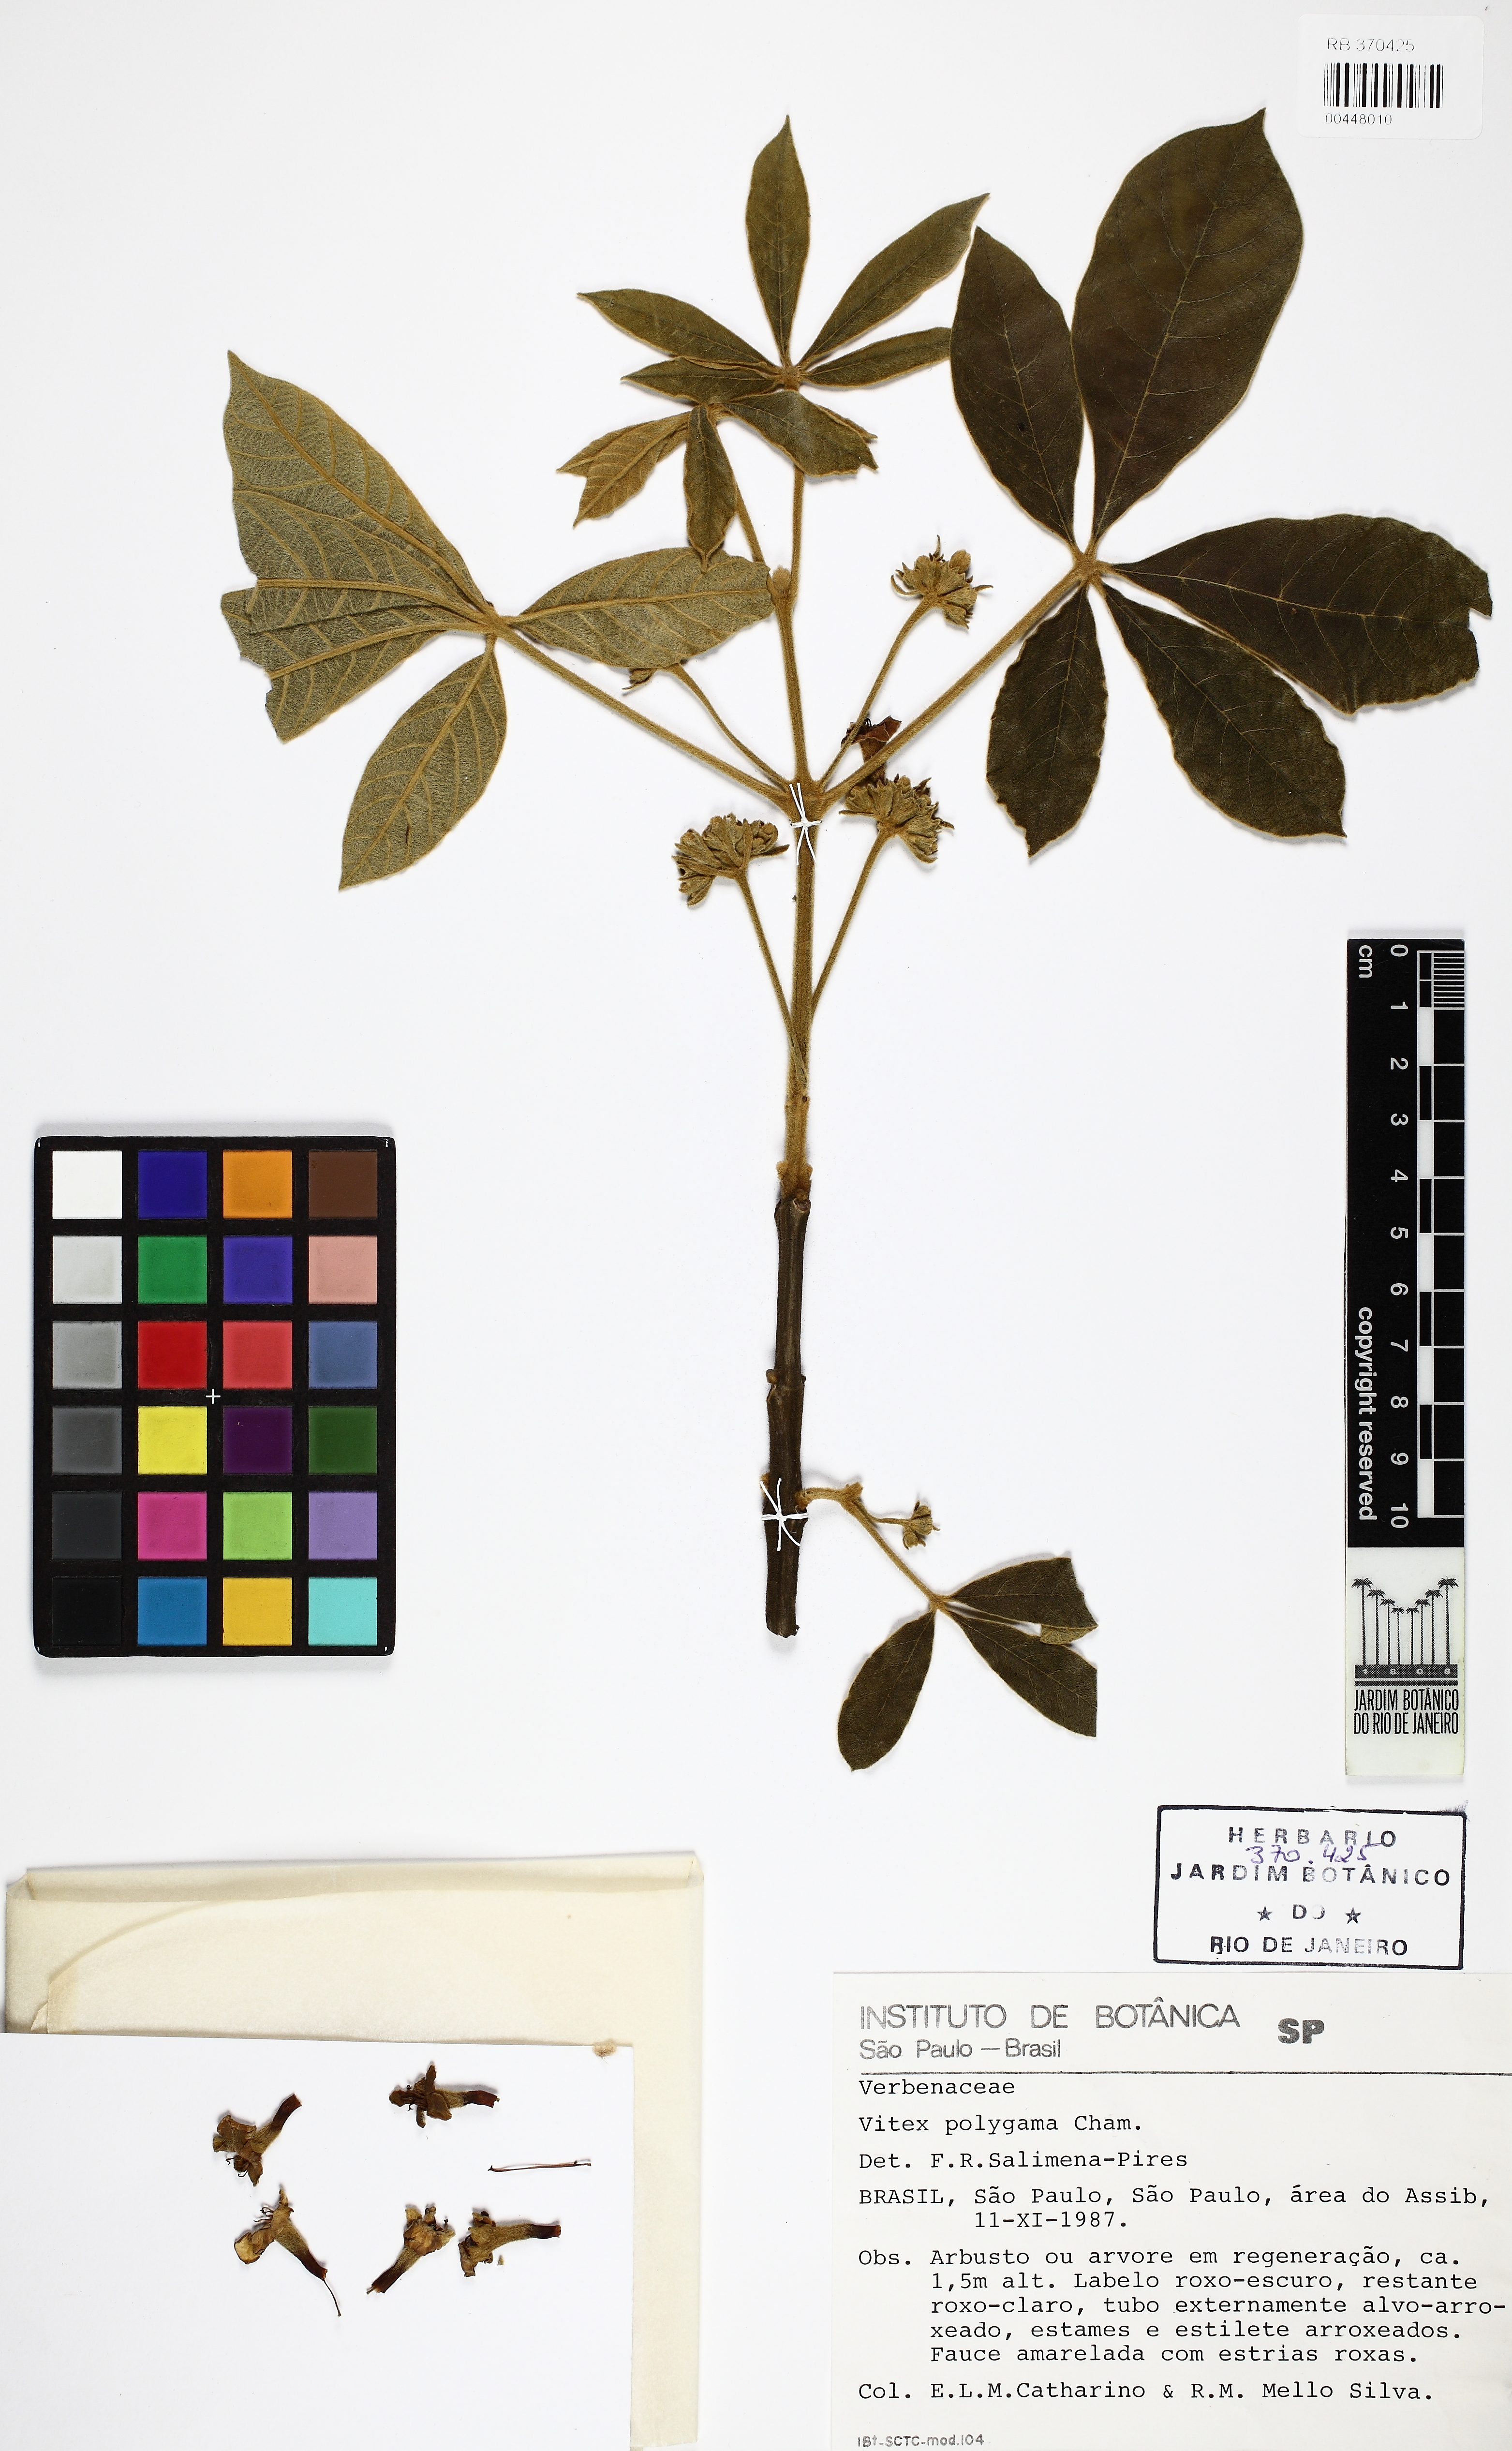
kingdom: Plantae
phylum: Tracheophyta
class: Magnoliopsida
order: Lamiales
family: Lamiaceae
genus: Vitex
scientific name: Vitex polygama
